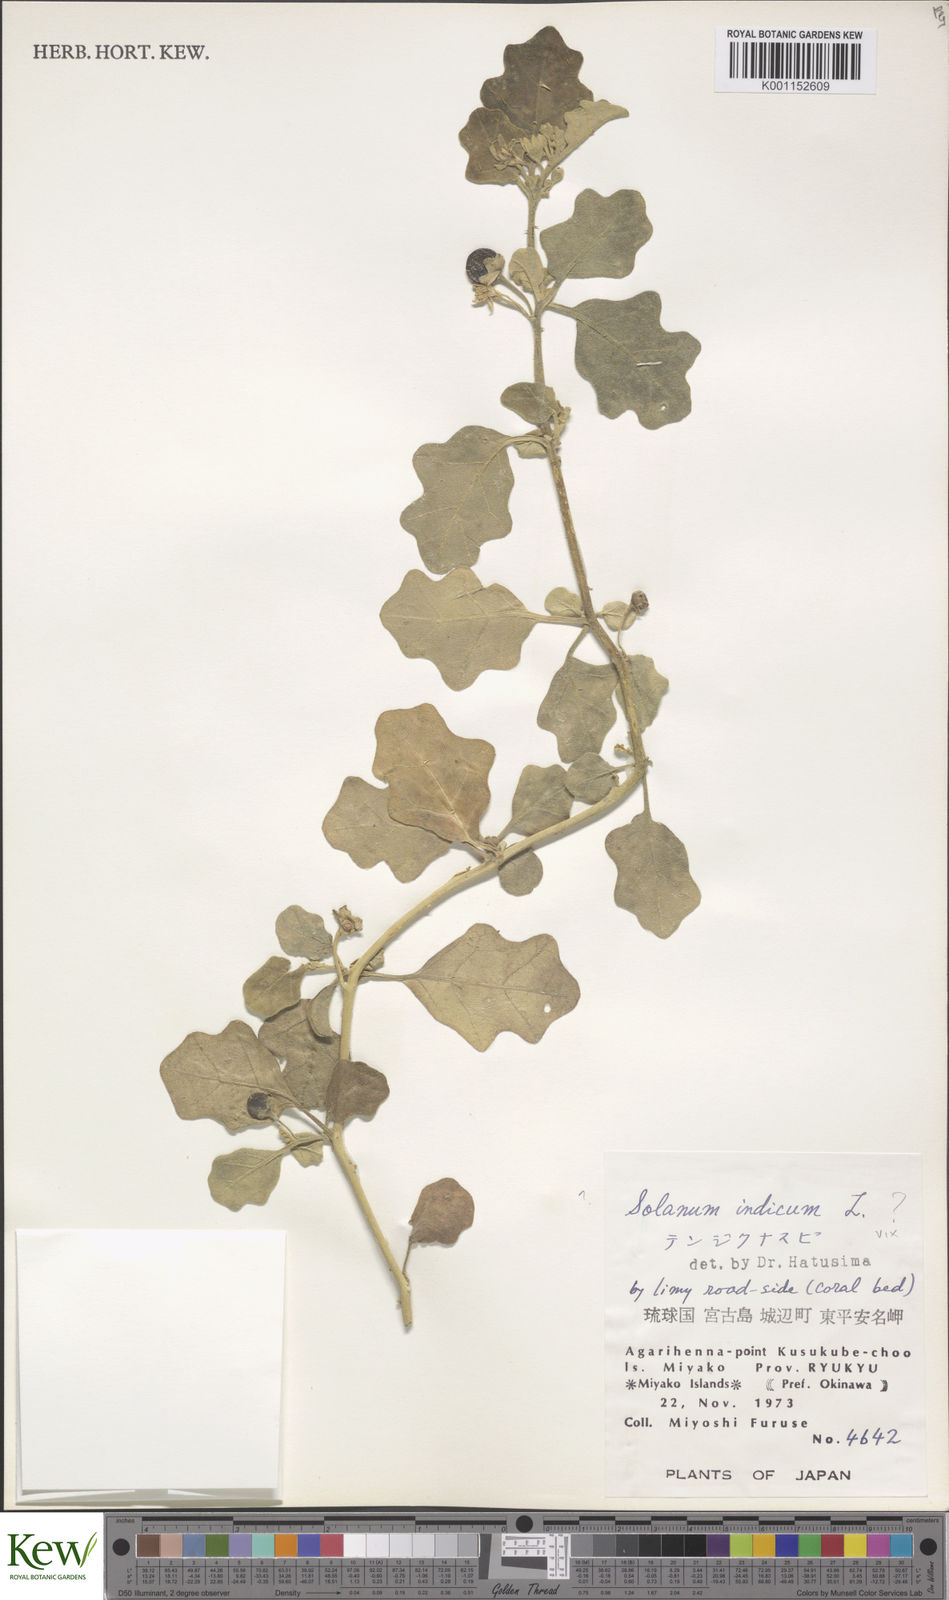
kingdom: Plantae
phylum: Tracheophyta
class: Magnoliopsida
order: Solanales
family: Solanaceae
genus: Solanum
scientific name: Solanum violaceum
